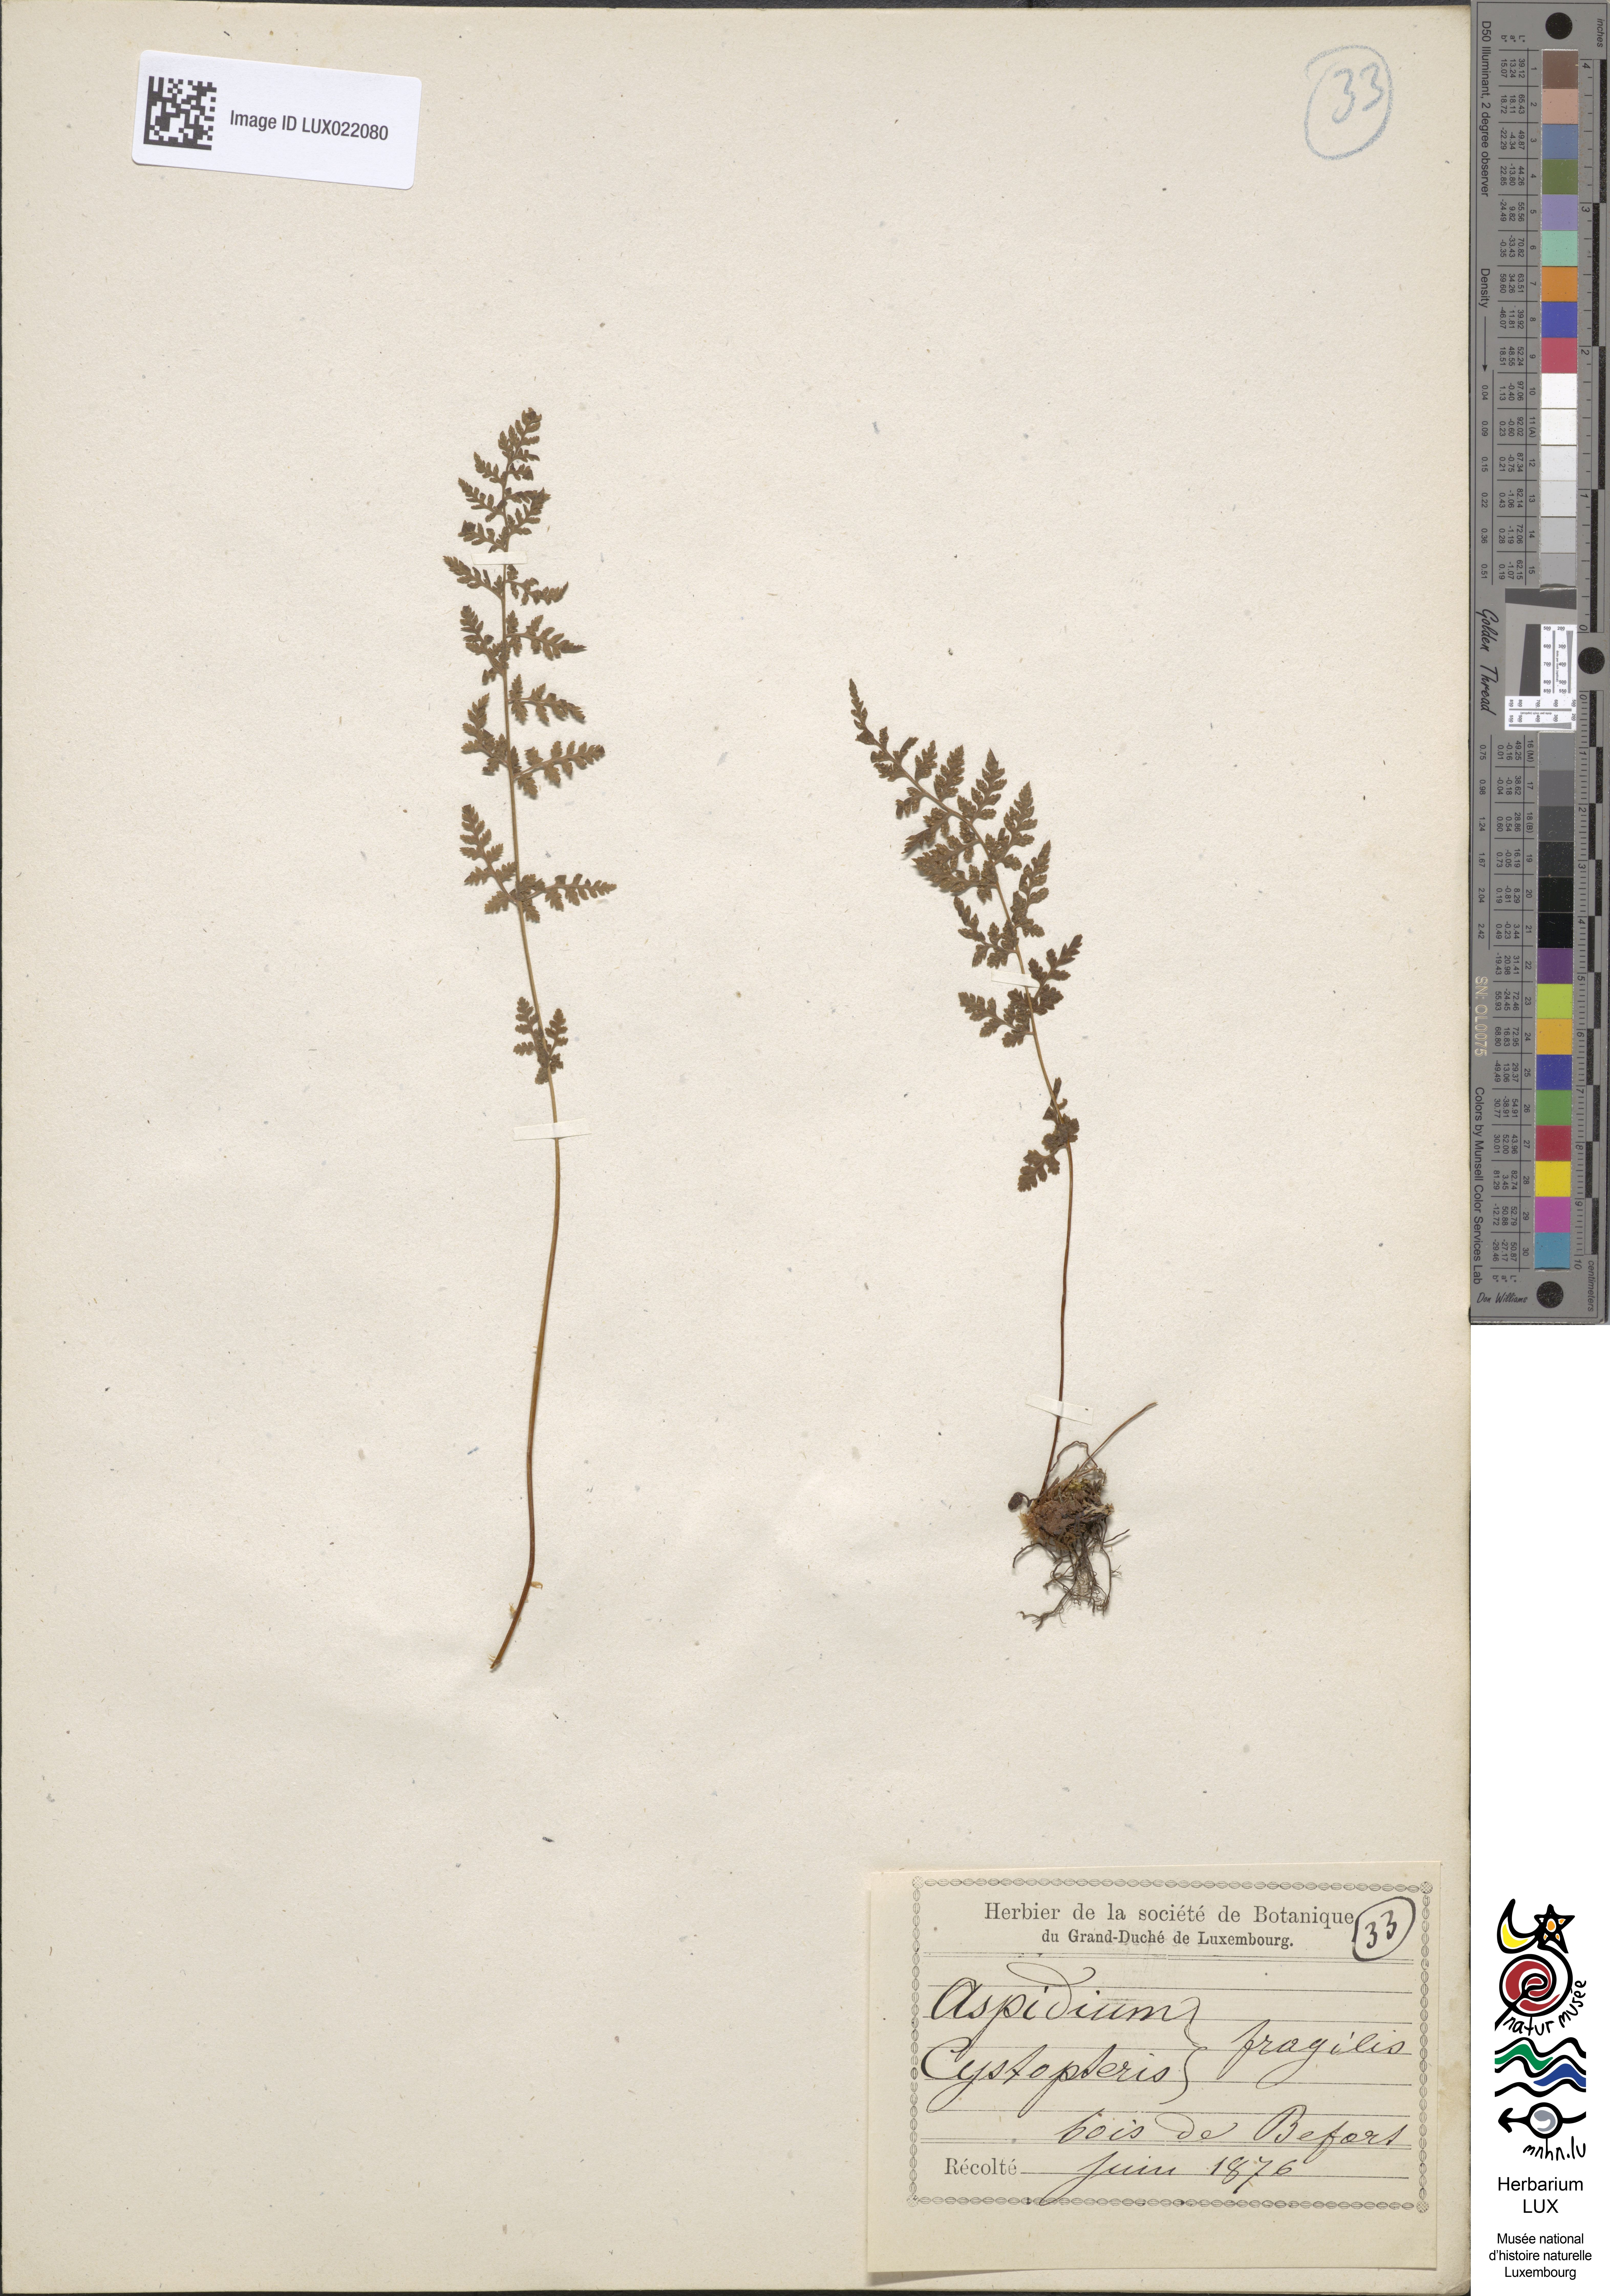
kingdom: Plantae
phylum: Tracheophyta
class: Polypodiopsida
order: Polypodiales
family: Cystopteridaceae
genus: Cystopteris
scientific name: Cystopteris fragilis
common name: Brittle bladder fern
